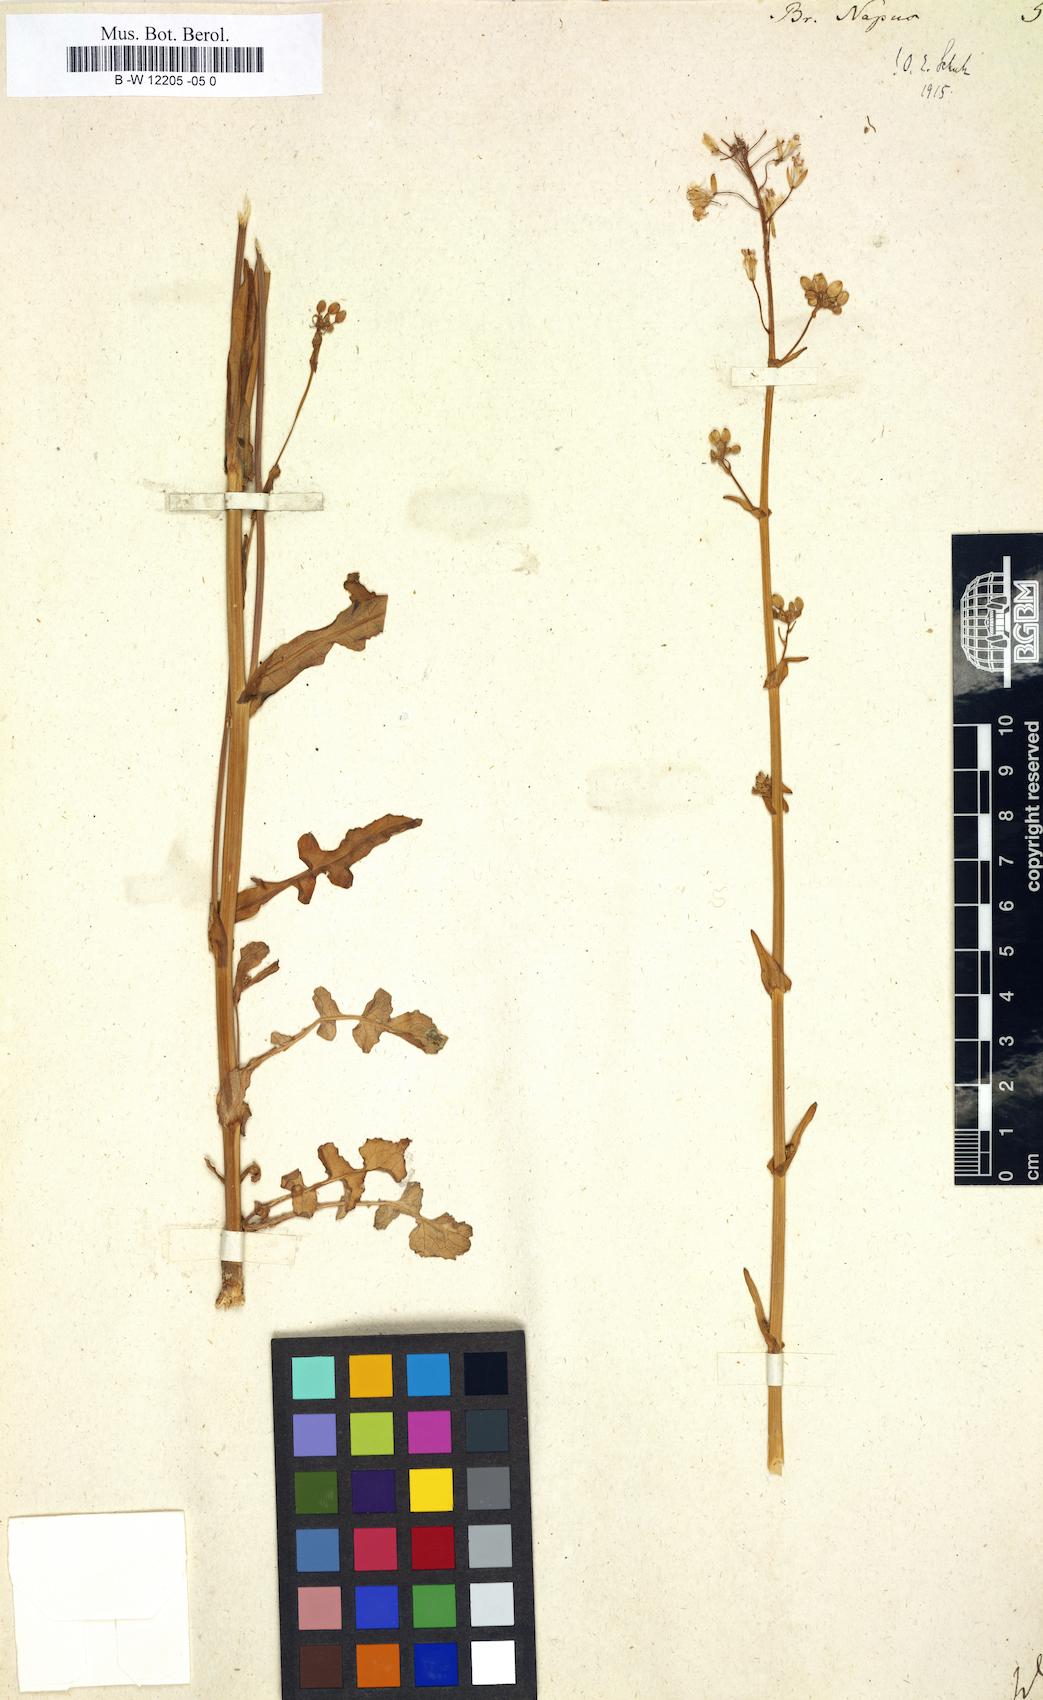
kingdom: Plantae
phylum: Tracheophyta
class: Magnoliopsida
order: Brassicales
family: Brassicaceae
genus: Brassica
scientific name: Brassica napus
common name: Rape
